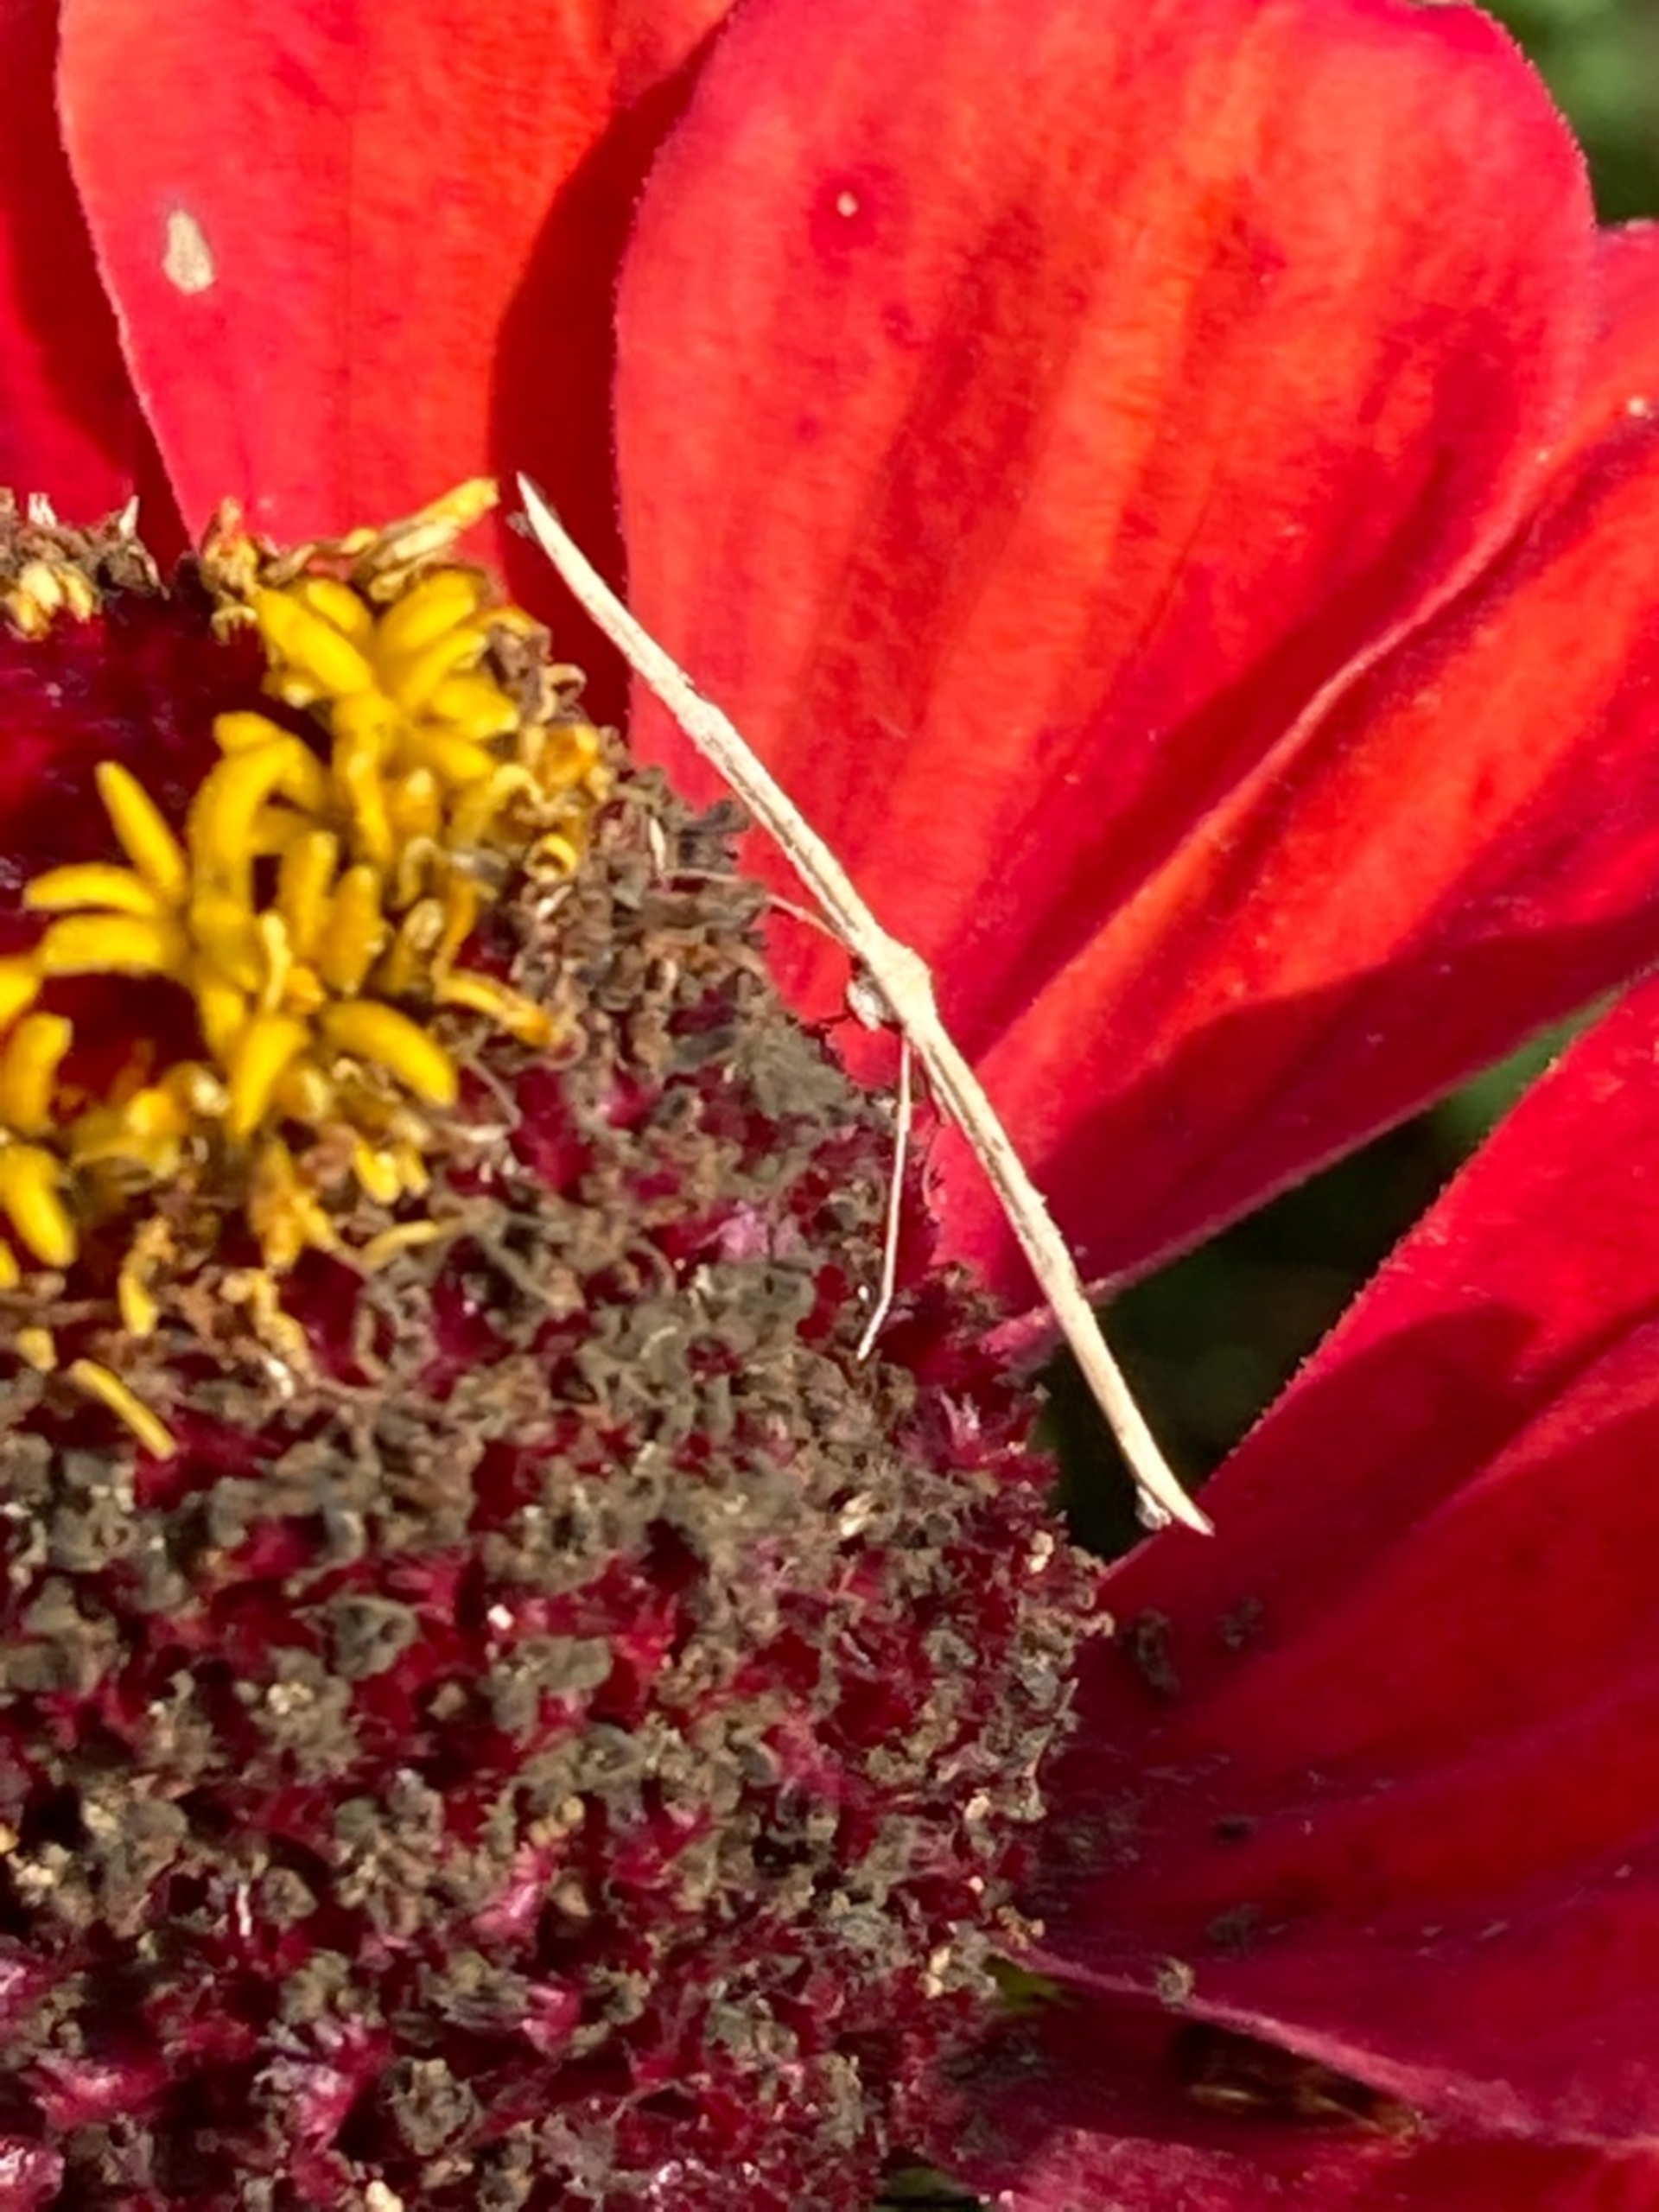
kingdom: Animalia
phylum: Arthropoda
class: Insecta
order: Lepidoptera
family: Pterophoridae
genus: Emmelina
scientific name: Emmelina monodactyla
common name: Snerlefjermøl
